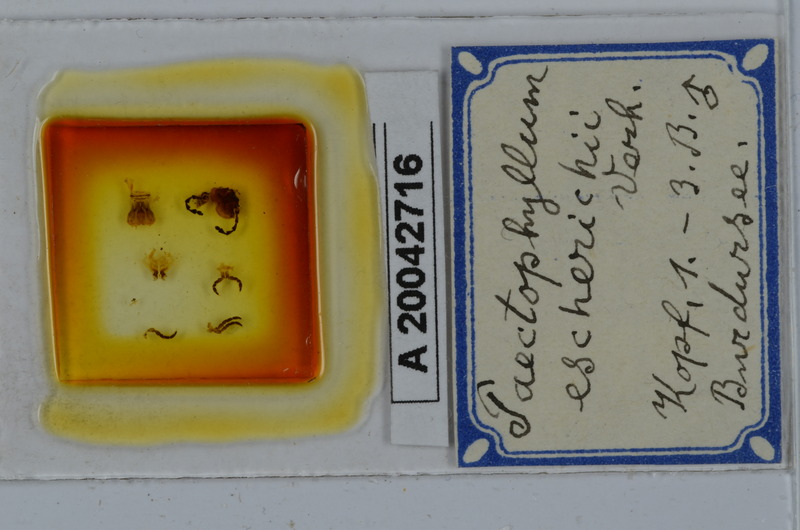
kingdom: Animalia
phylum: Arthropoda
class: Diplopoda
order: Julida
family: Julidae
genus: Paectophyllum
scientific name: Paectophyllum escherichii
